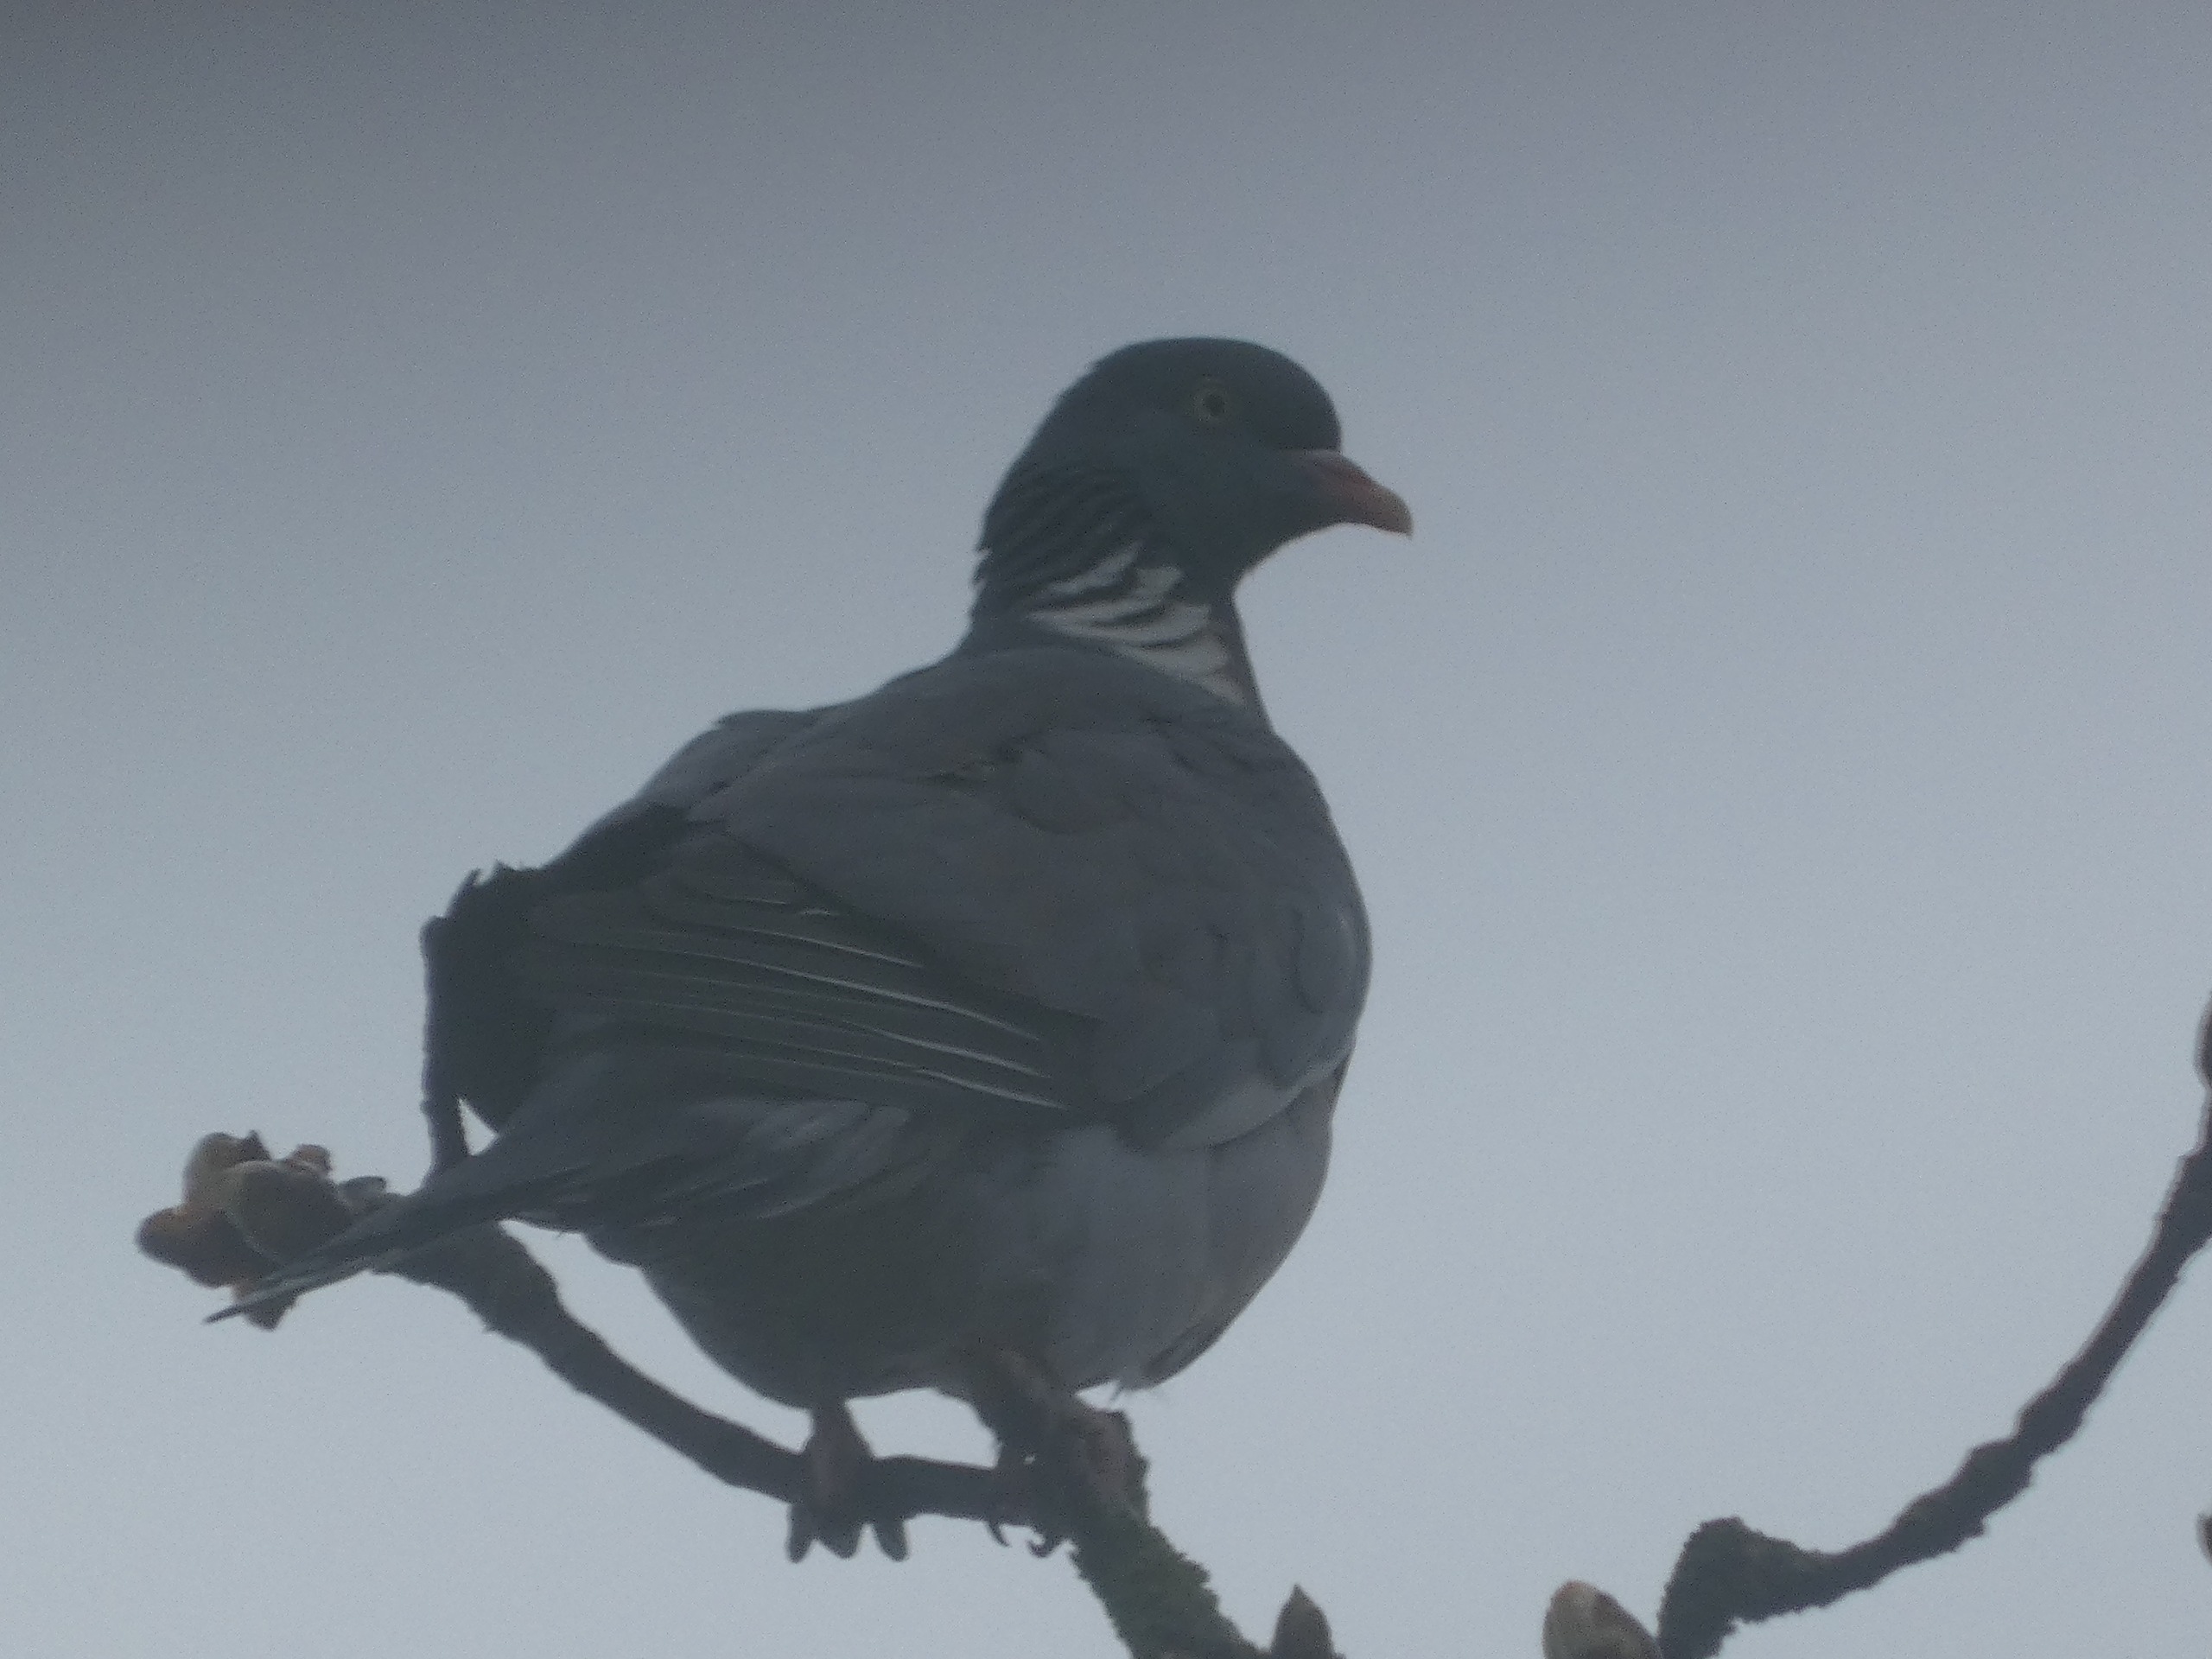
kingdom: Animalia
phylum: Chordata
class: Aves
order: Columbiformes
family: Columbidae
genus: Columba
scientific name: Columba palumbus
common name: Ringdue
